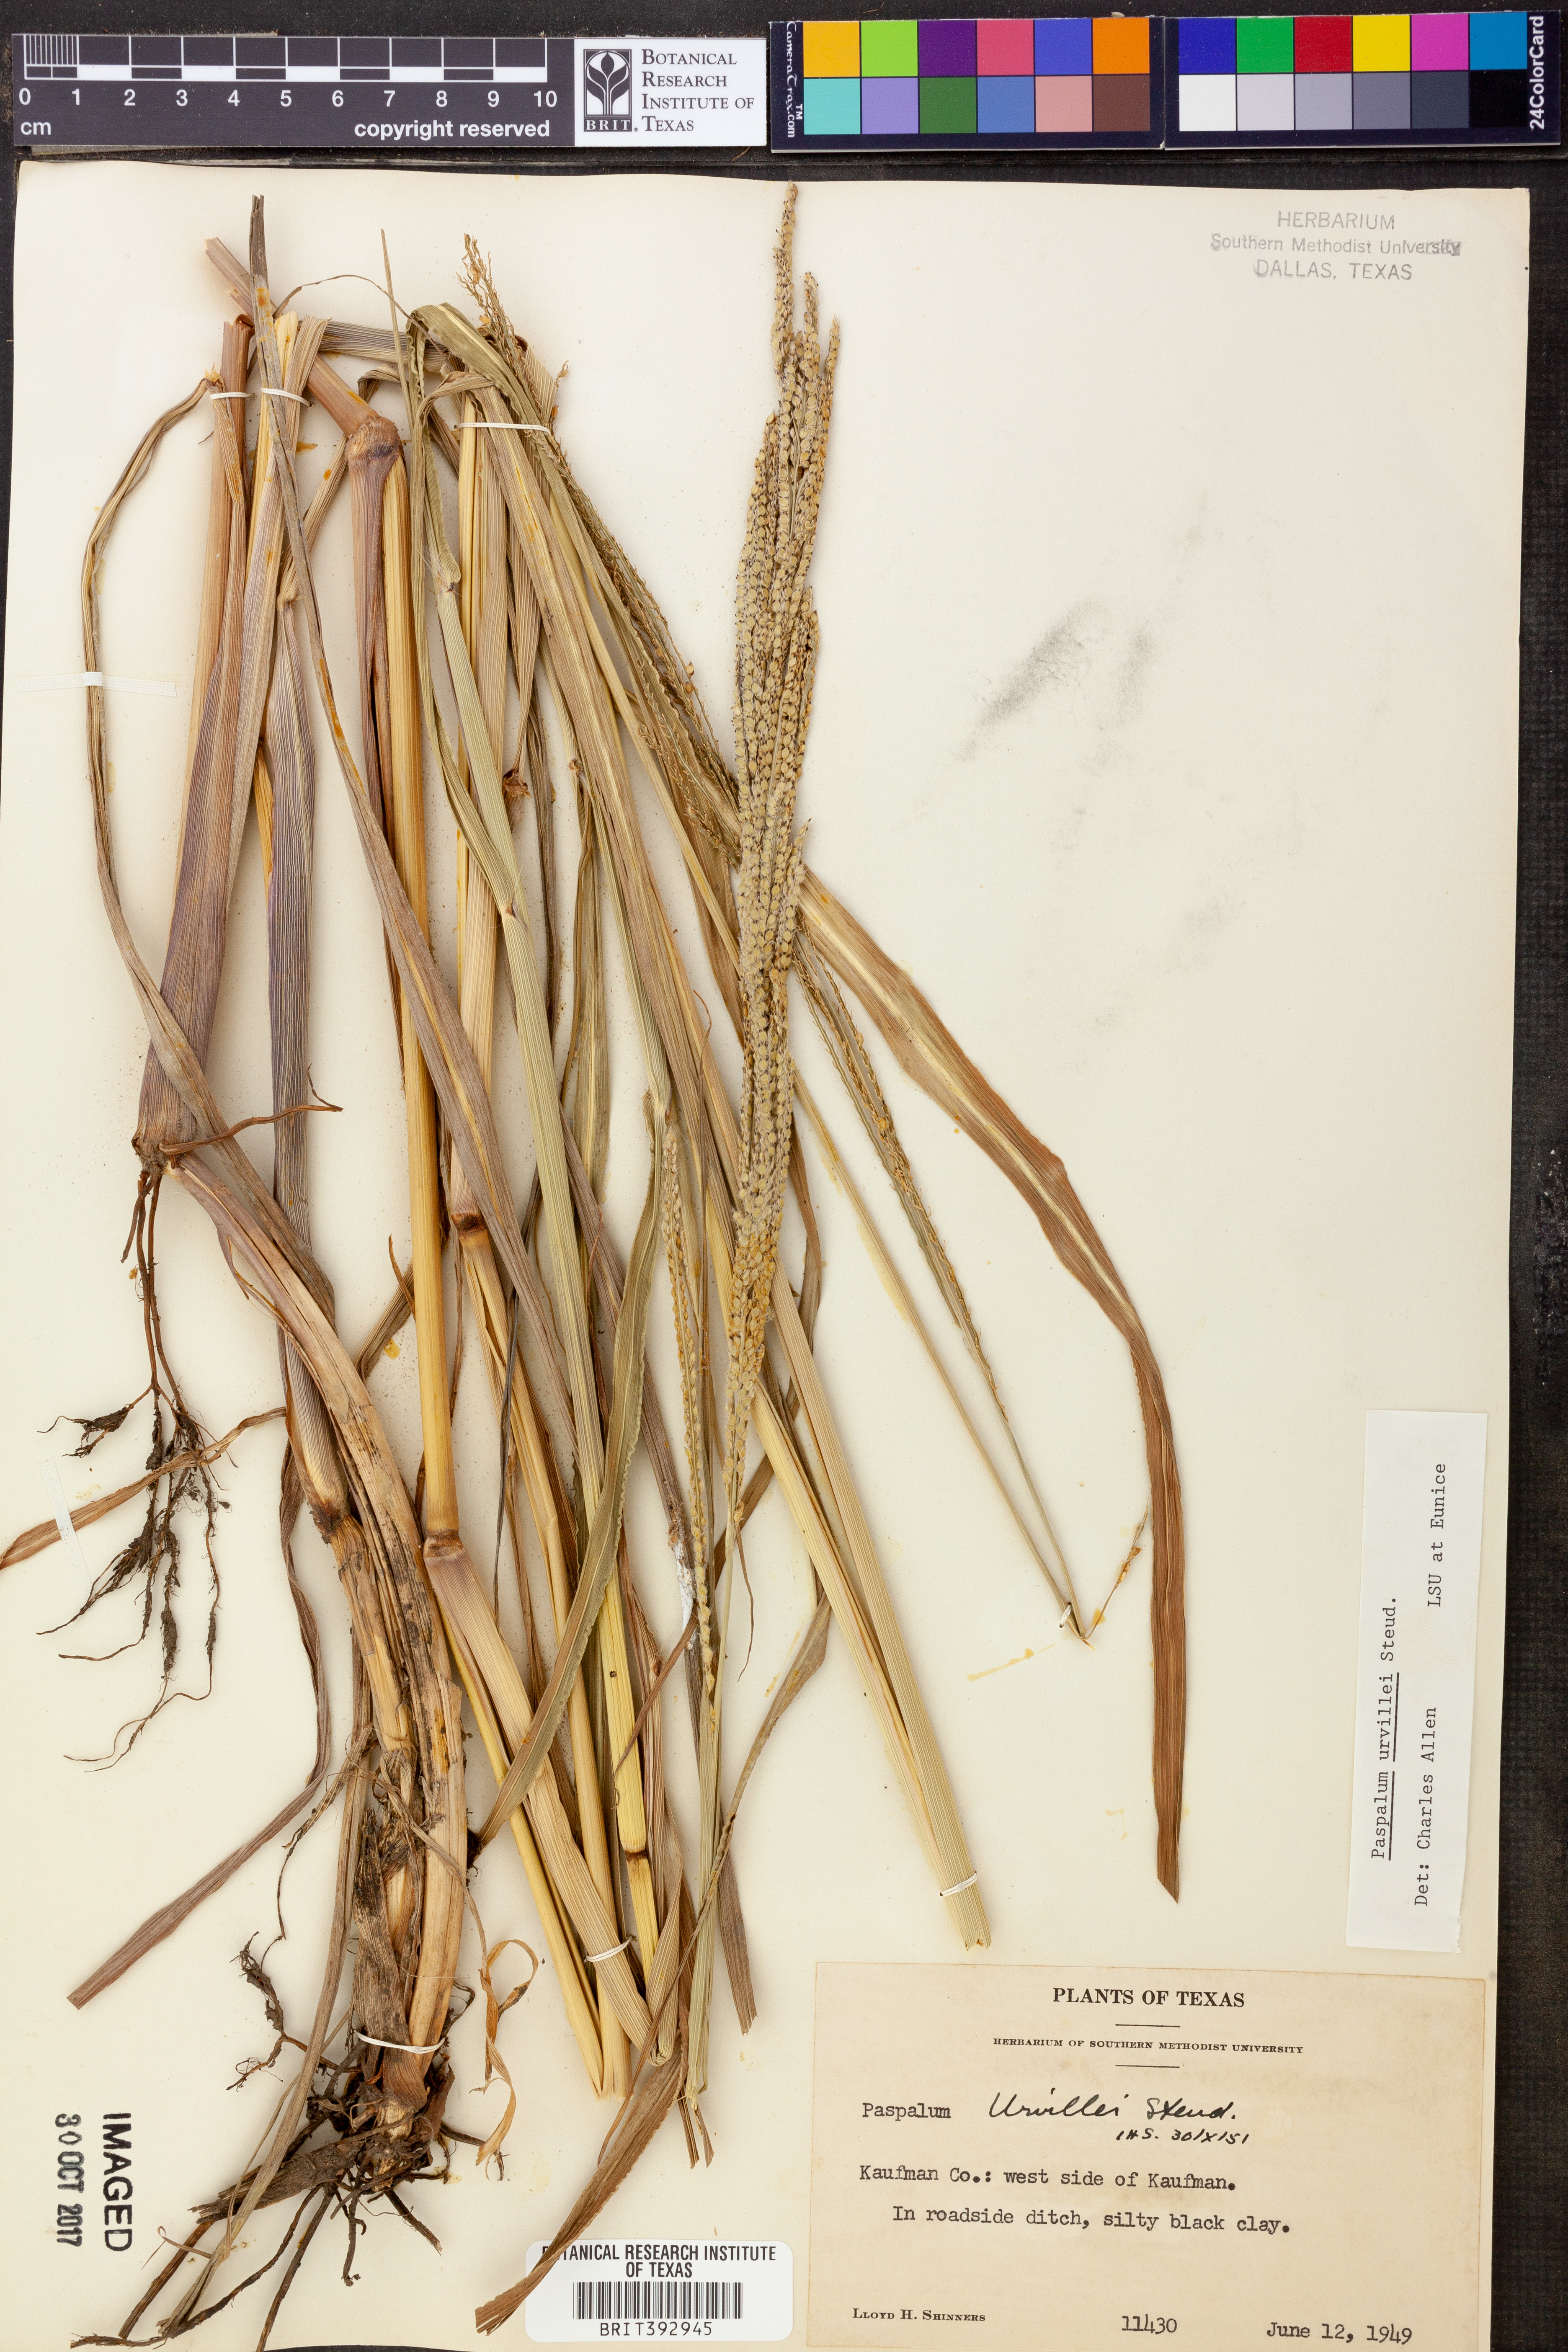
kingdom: Plantae
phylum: Tracheophyta
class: Liliopsida
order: Poales
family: Poaceae
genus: Paspalum
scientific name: Paspalum urvillei
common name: Vasey's grass
